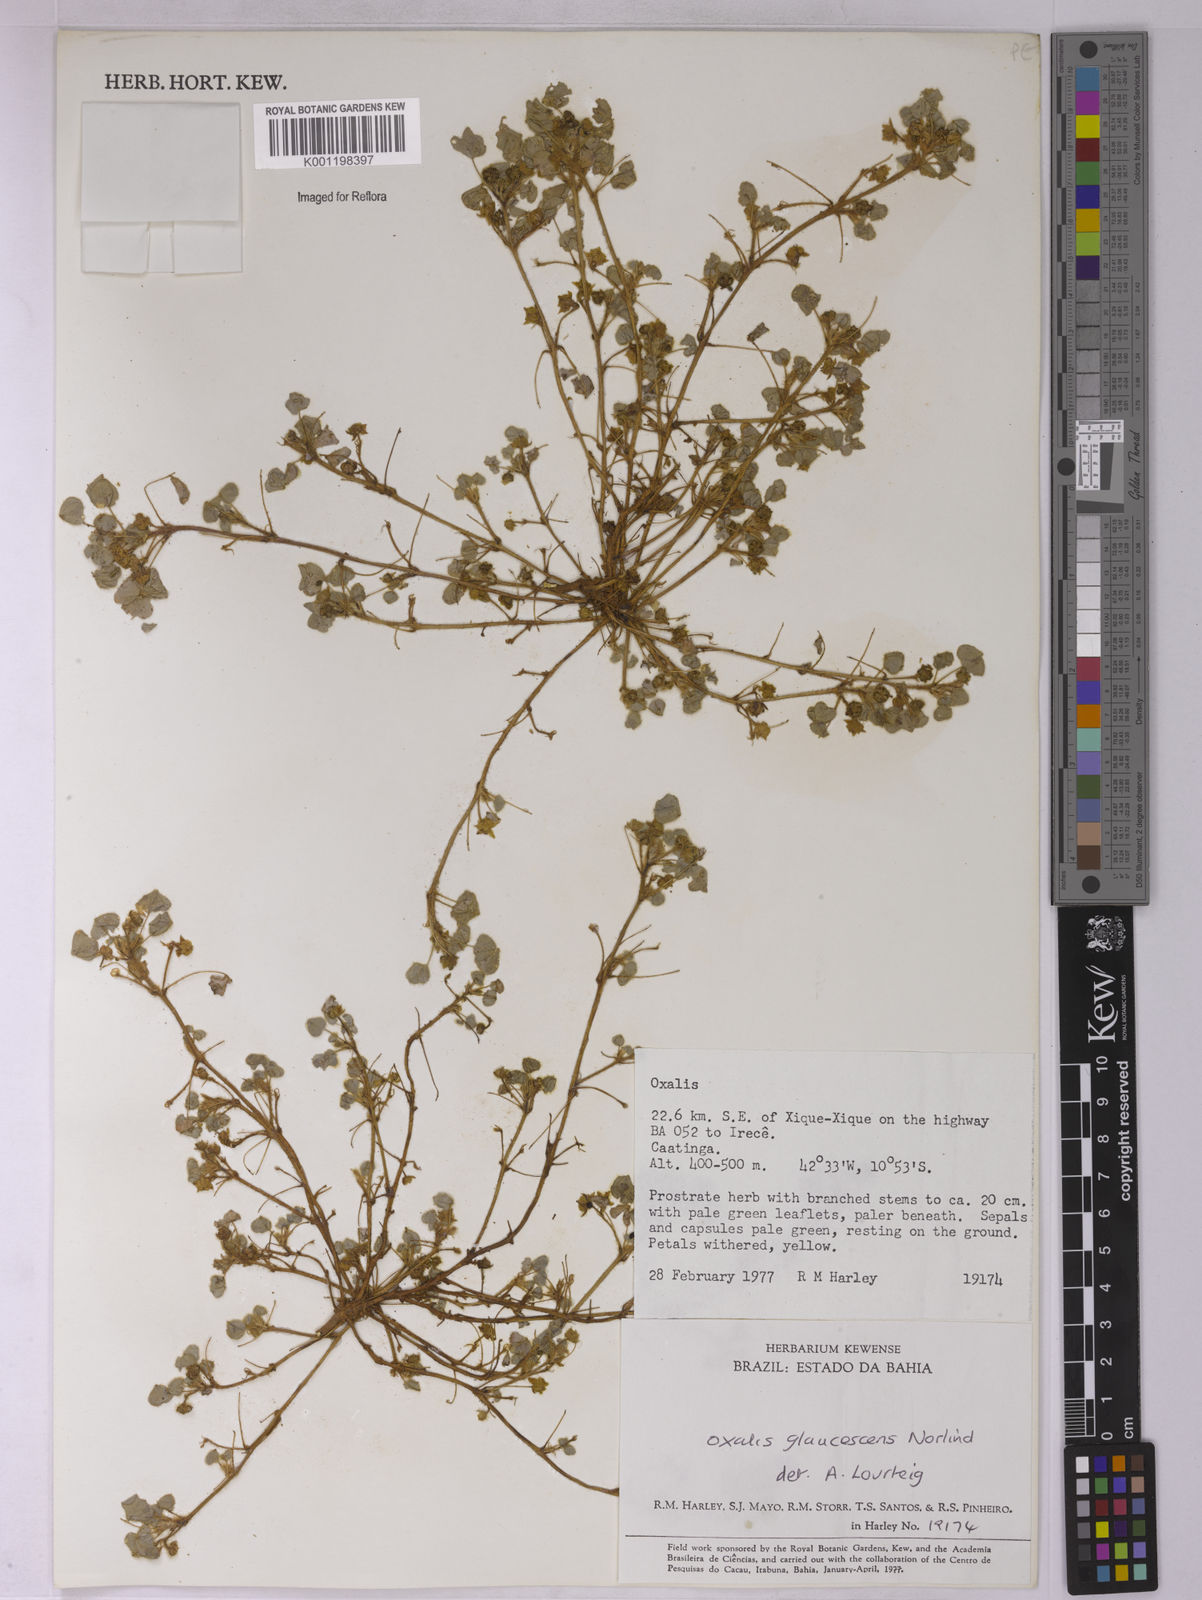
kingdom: Plantae
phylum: Tracheophyta
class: Magnoliopsida
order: Oxalidales
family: Oxalidaceae
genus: Oxalis
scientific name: Oxalis glaucescens
